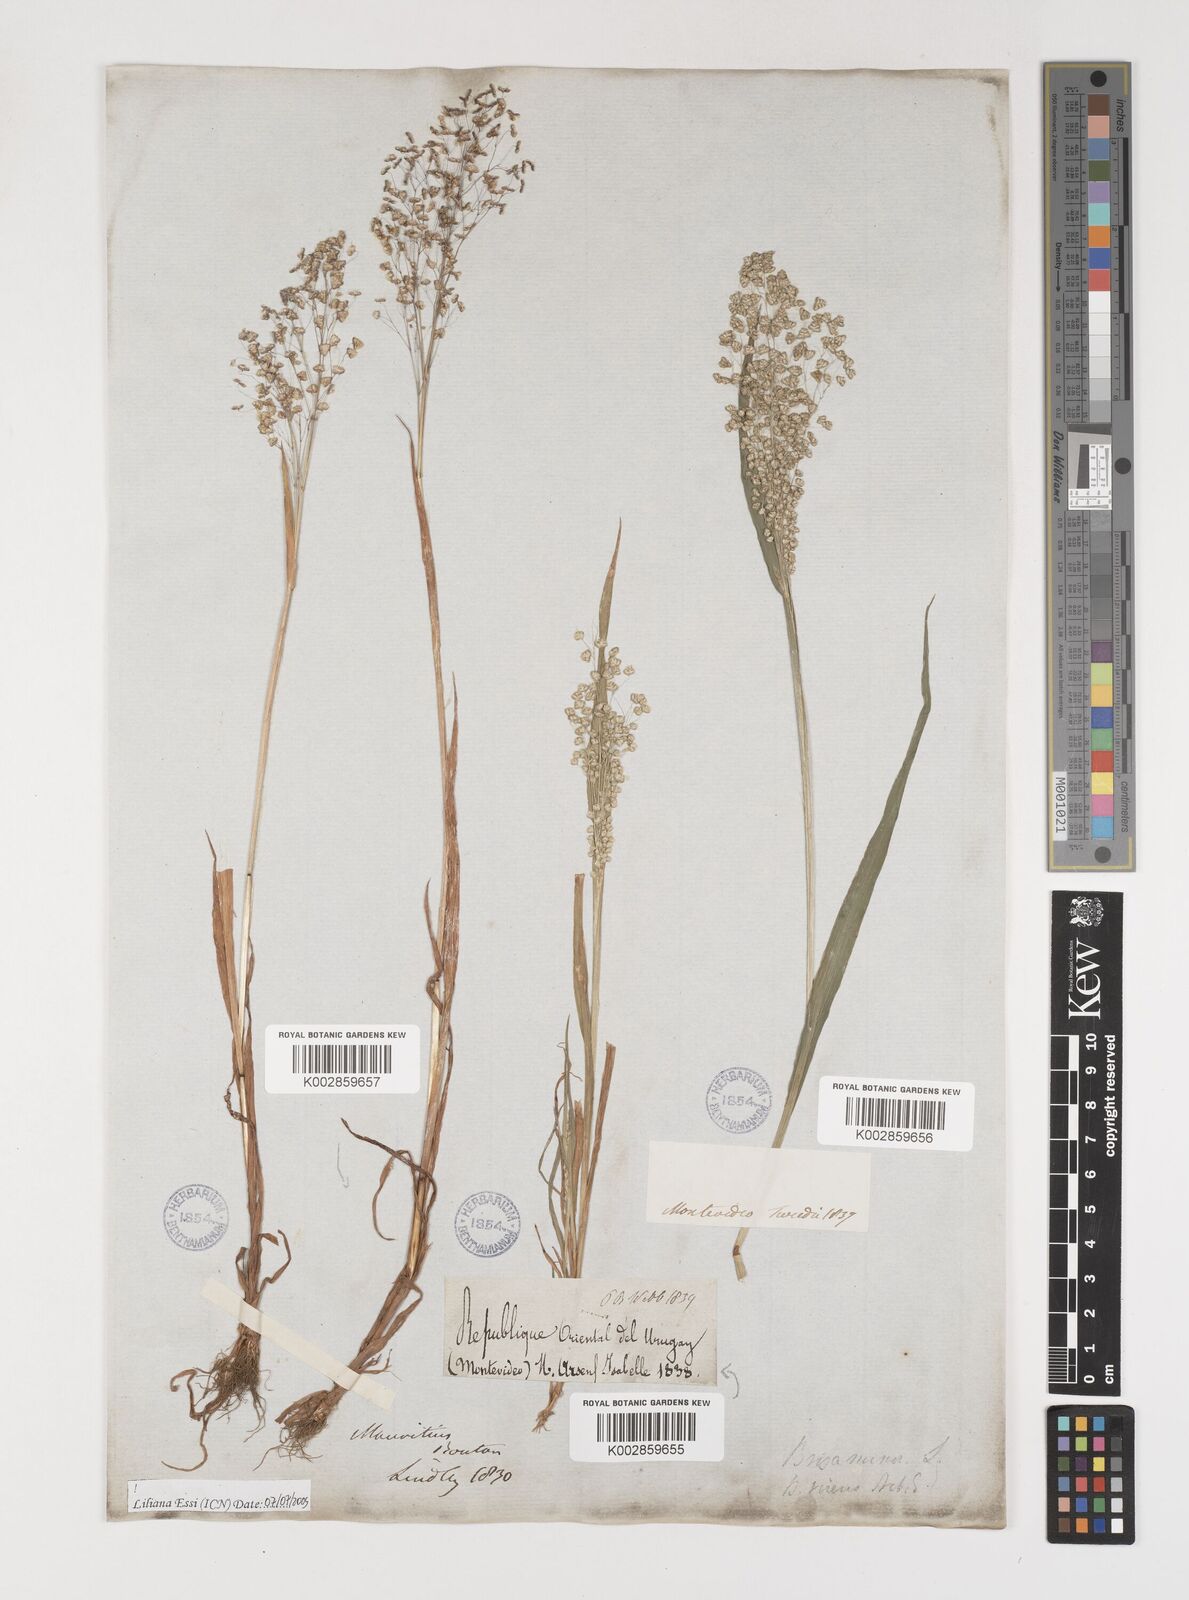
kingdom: Plantae
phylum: Tracheophyta
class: Liliopsida
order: Poales
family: Poaceae
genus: Briza
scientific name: Briza minor
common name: Lesser quaking-grass
